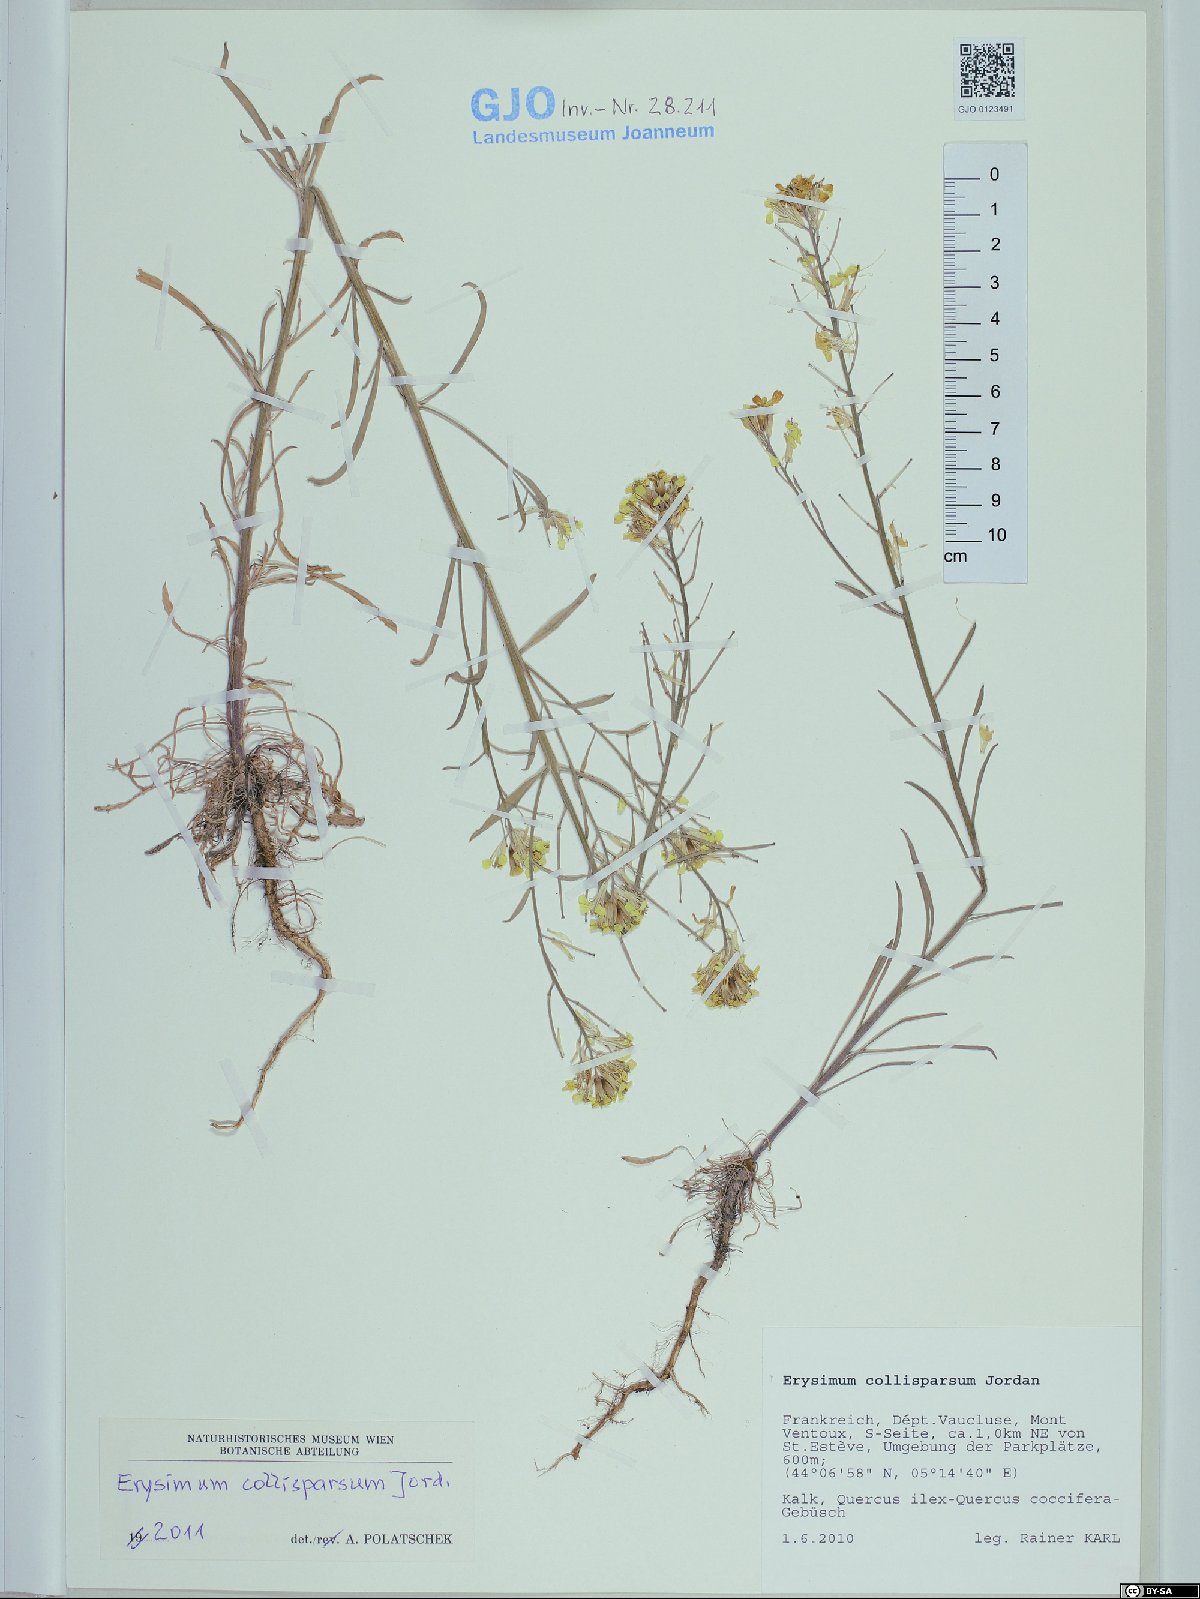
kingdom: Plantae
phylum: Tracheophyta
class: Magnoliopsida
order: Brassicales
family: Brassicaceae
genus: Erysimum
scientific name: Erysimum collisparsum
